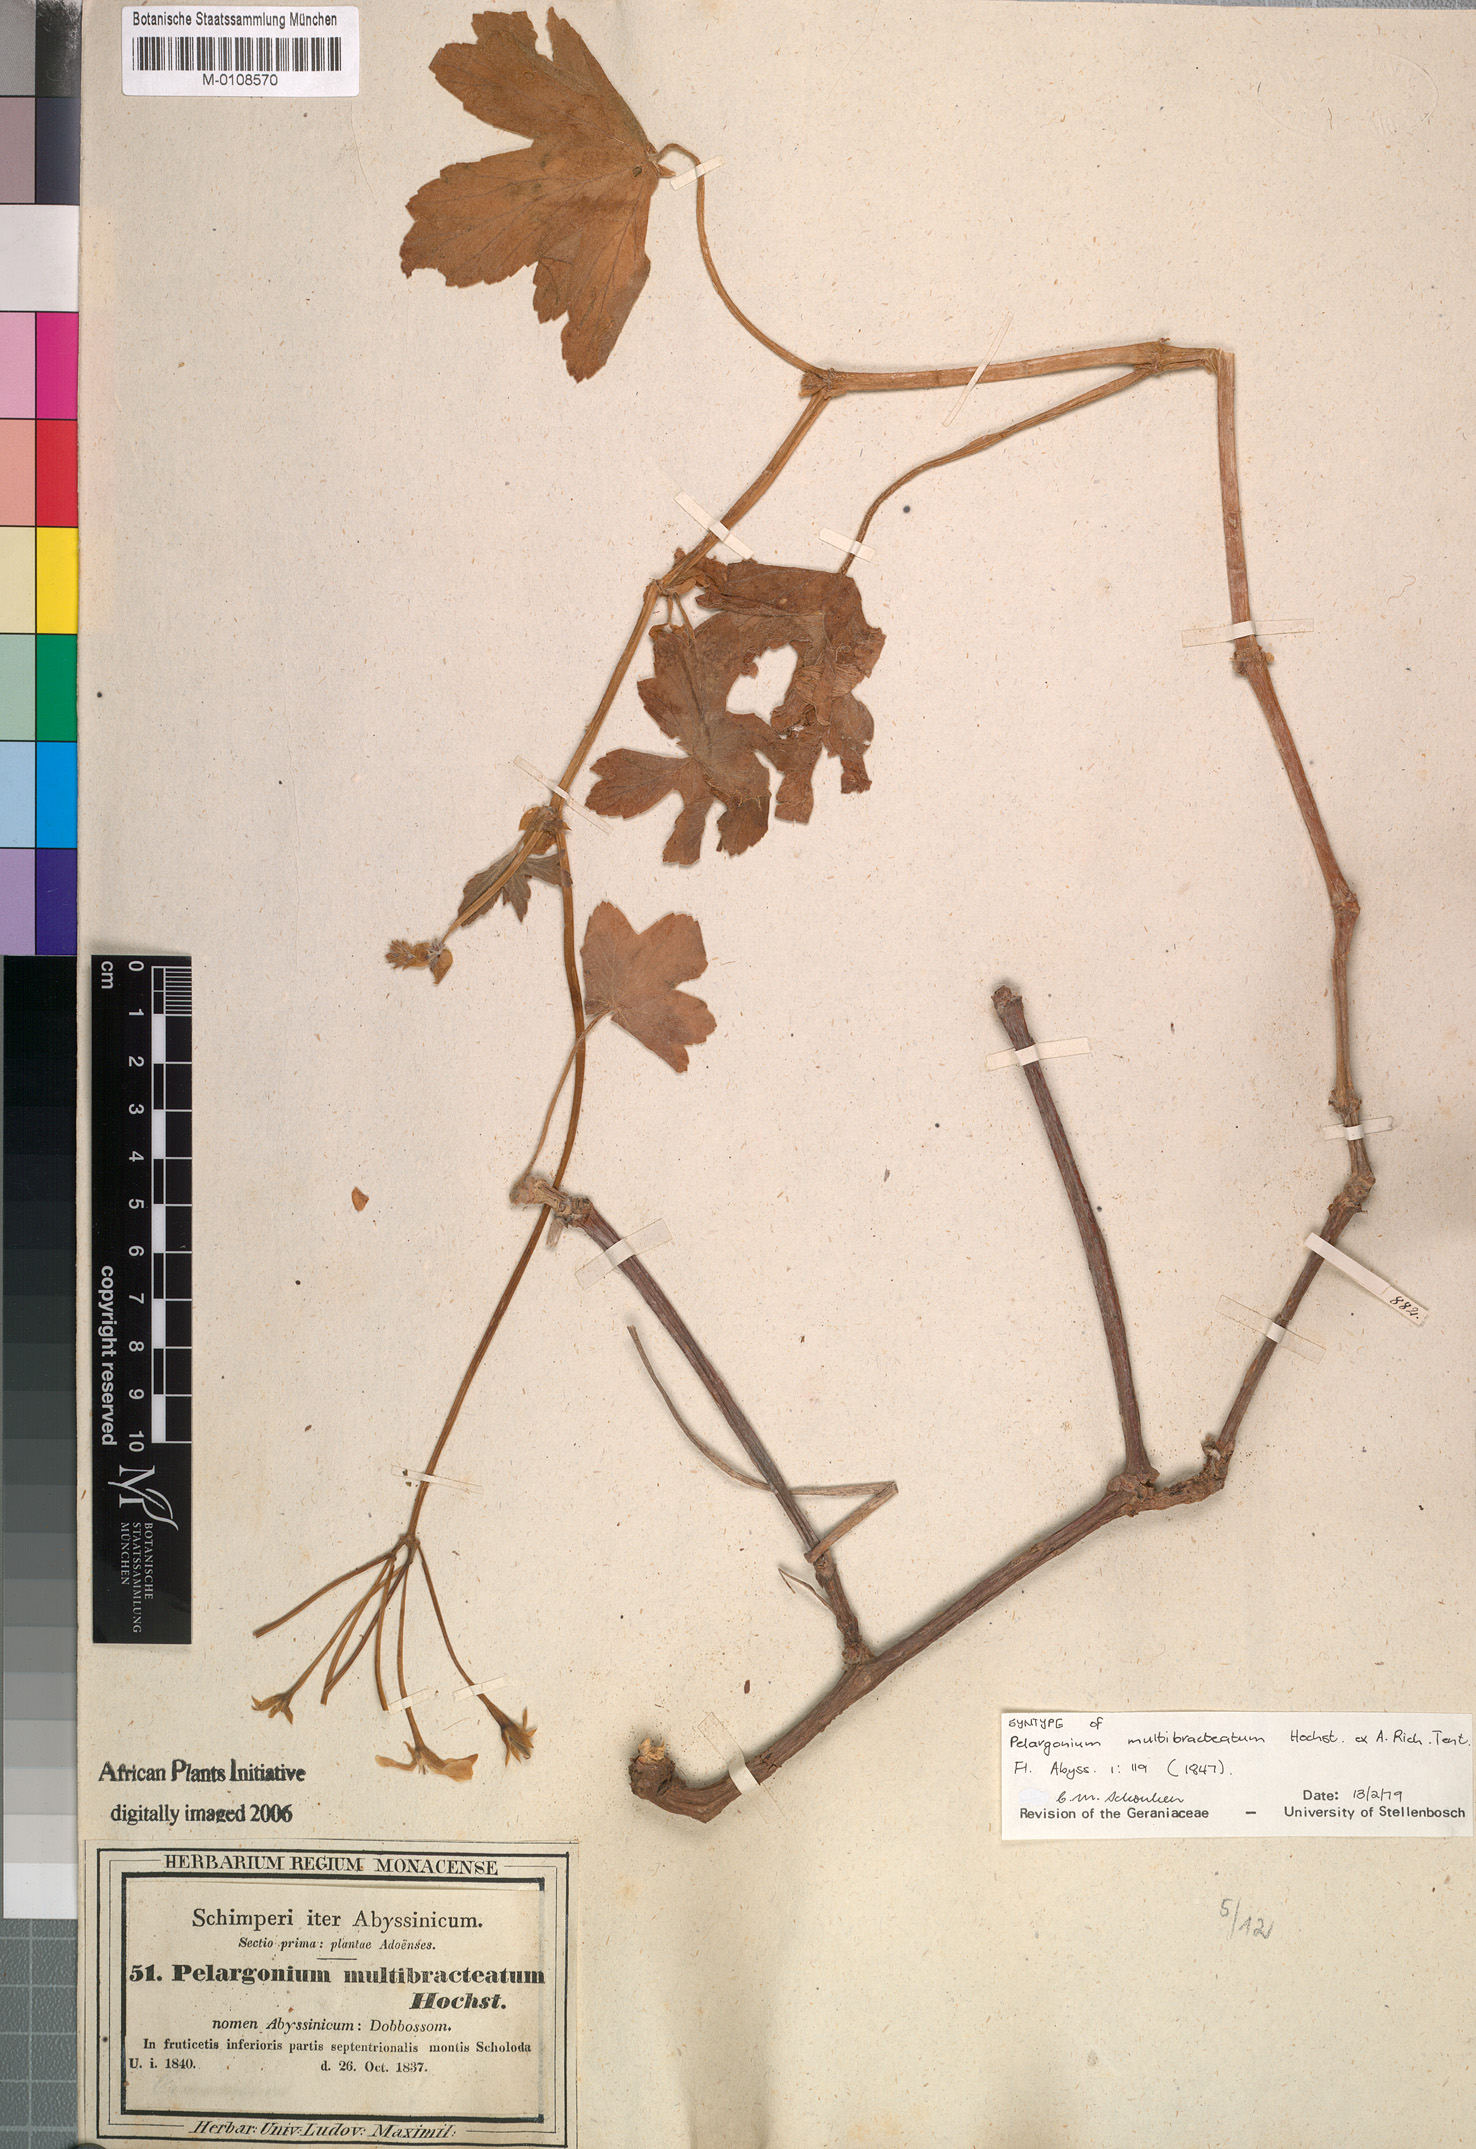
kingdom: Plantae
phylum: Tracheophyta
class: Magnoliopsida
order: Geraniales
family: Geraniaceae
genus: Pelargonium
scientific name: Pelargonium multibracteatum
